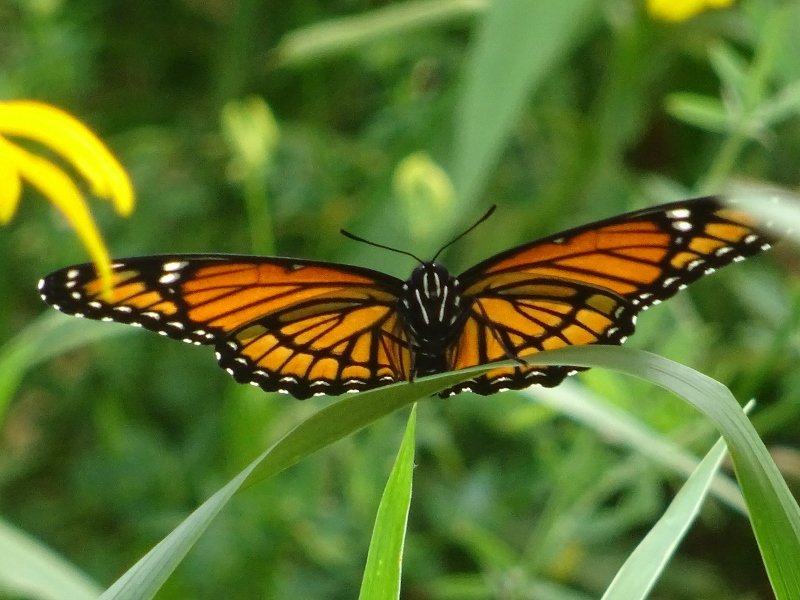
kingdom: Animalia
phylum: Arthropoda
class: Insecta
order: Lepidoptera
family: Nymphalidae
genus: Limenitis
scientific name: Limenitis archippus
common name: Viceroy
